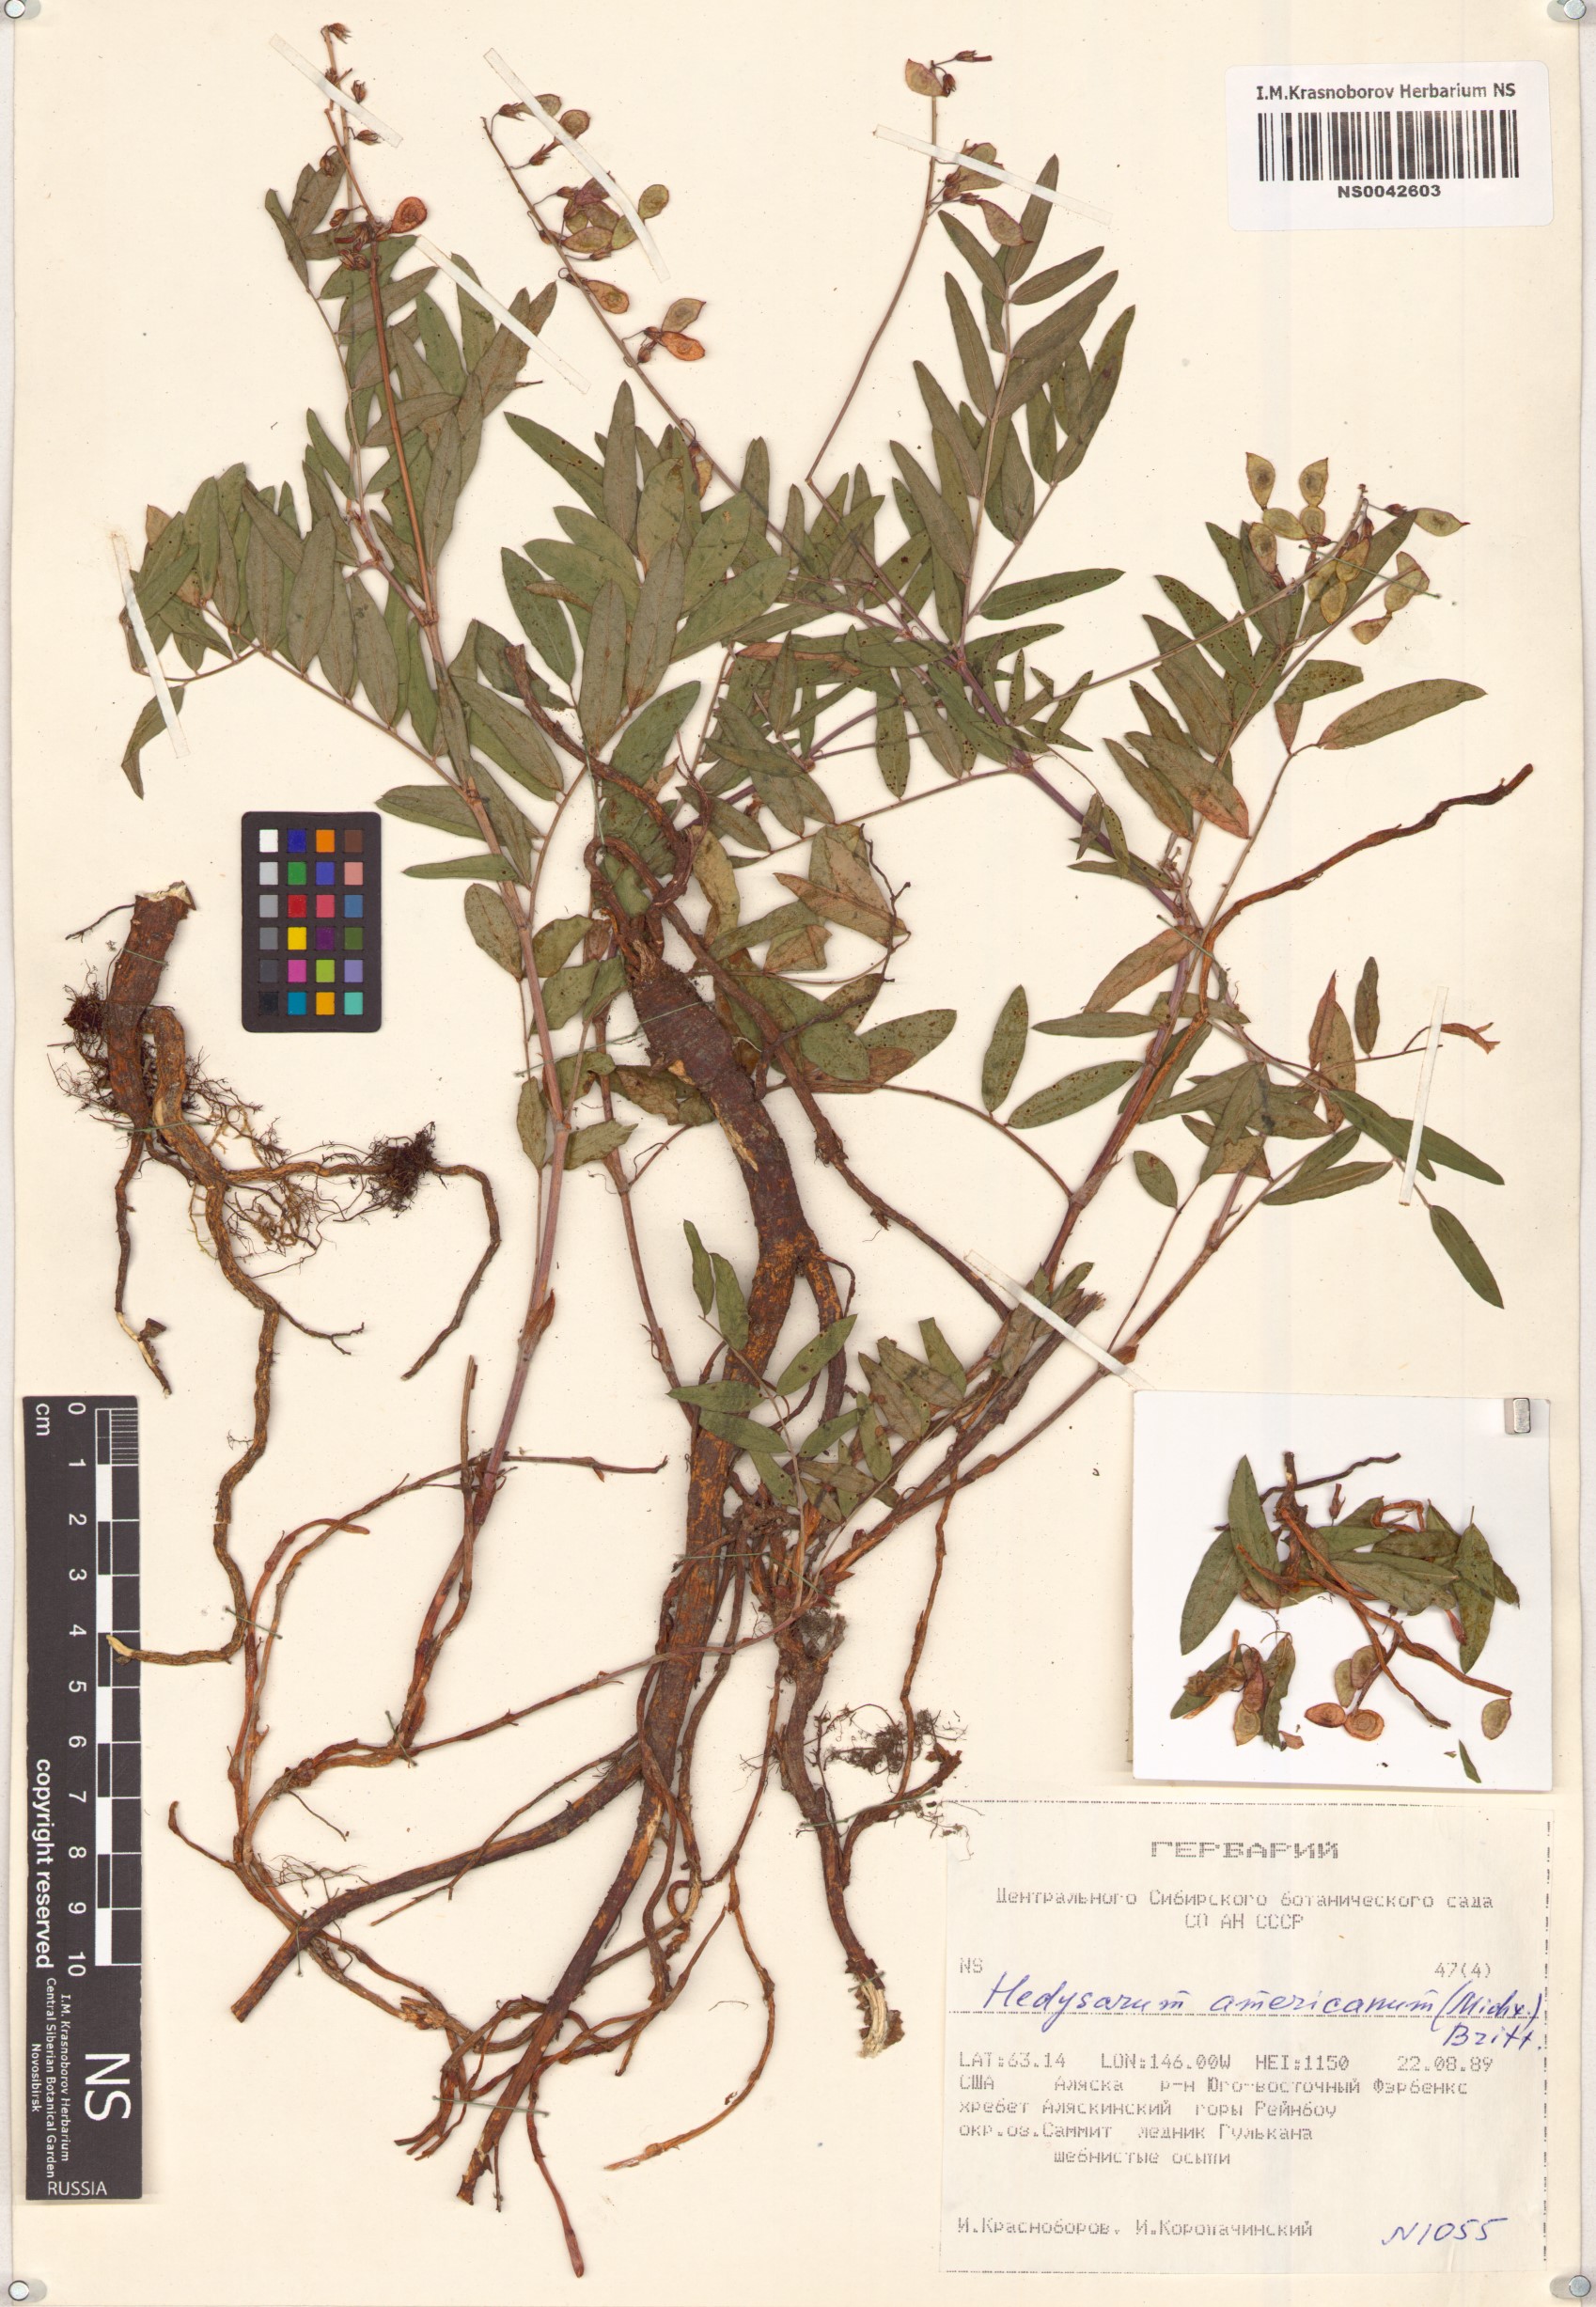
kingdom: Plantae
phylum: Tracheophyta
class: Magnoliopsida
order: Fabales
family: Fabaceae
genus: Hedysarum
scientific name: Hedysarum americanum
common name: Alpine hedysarum
